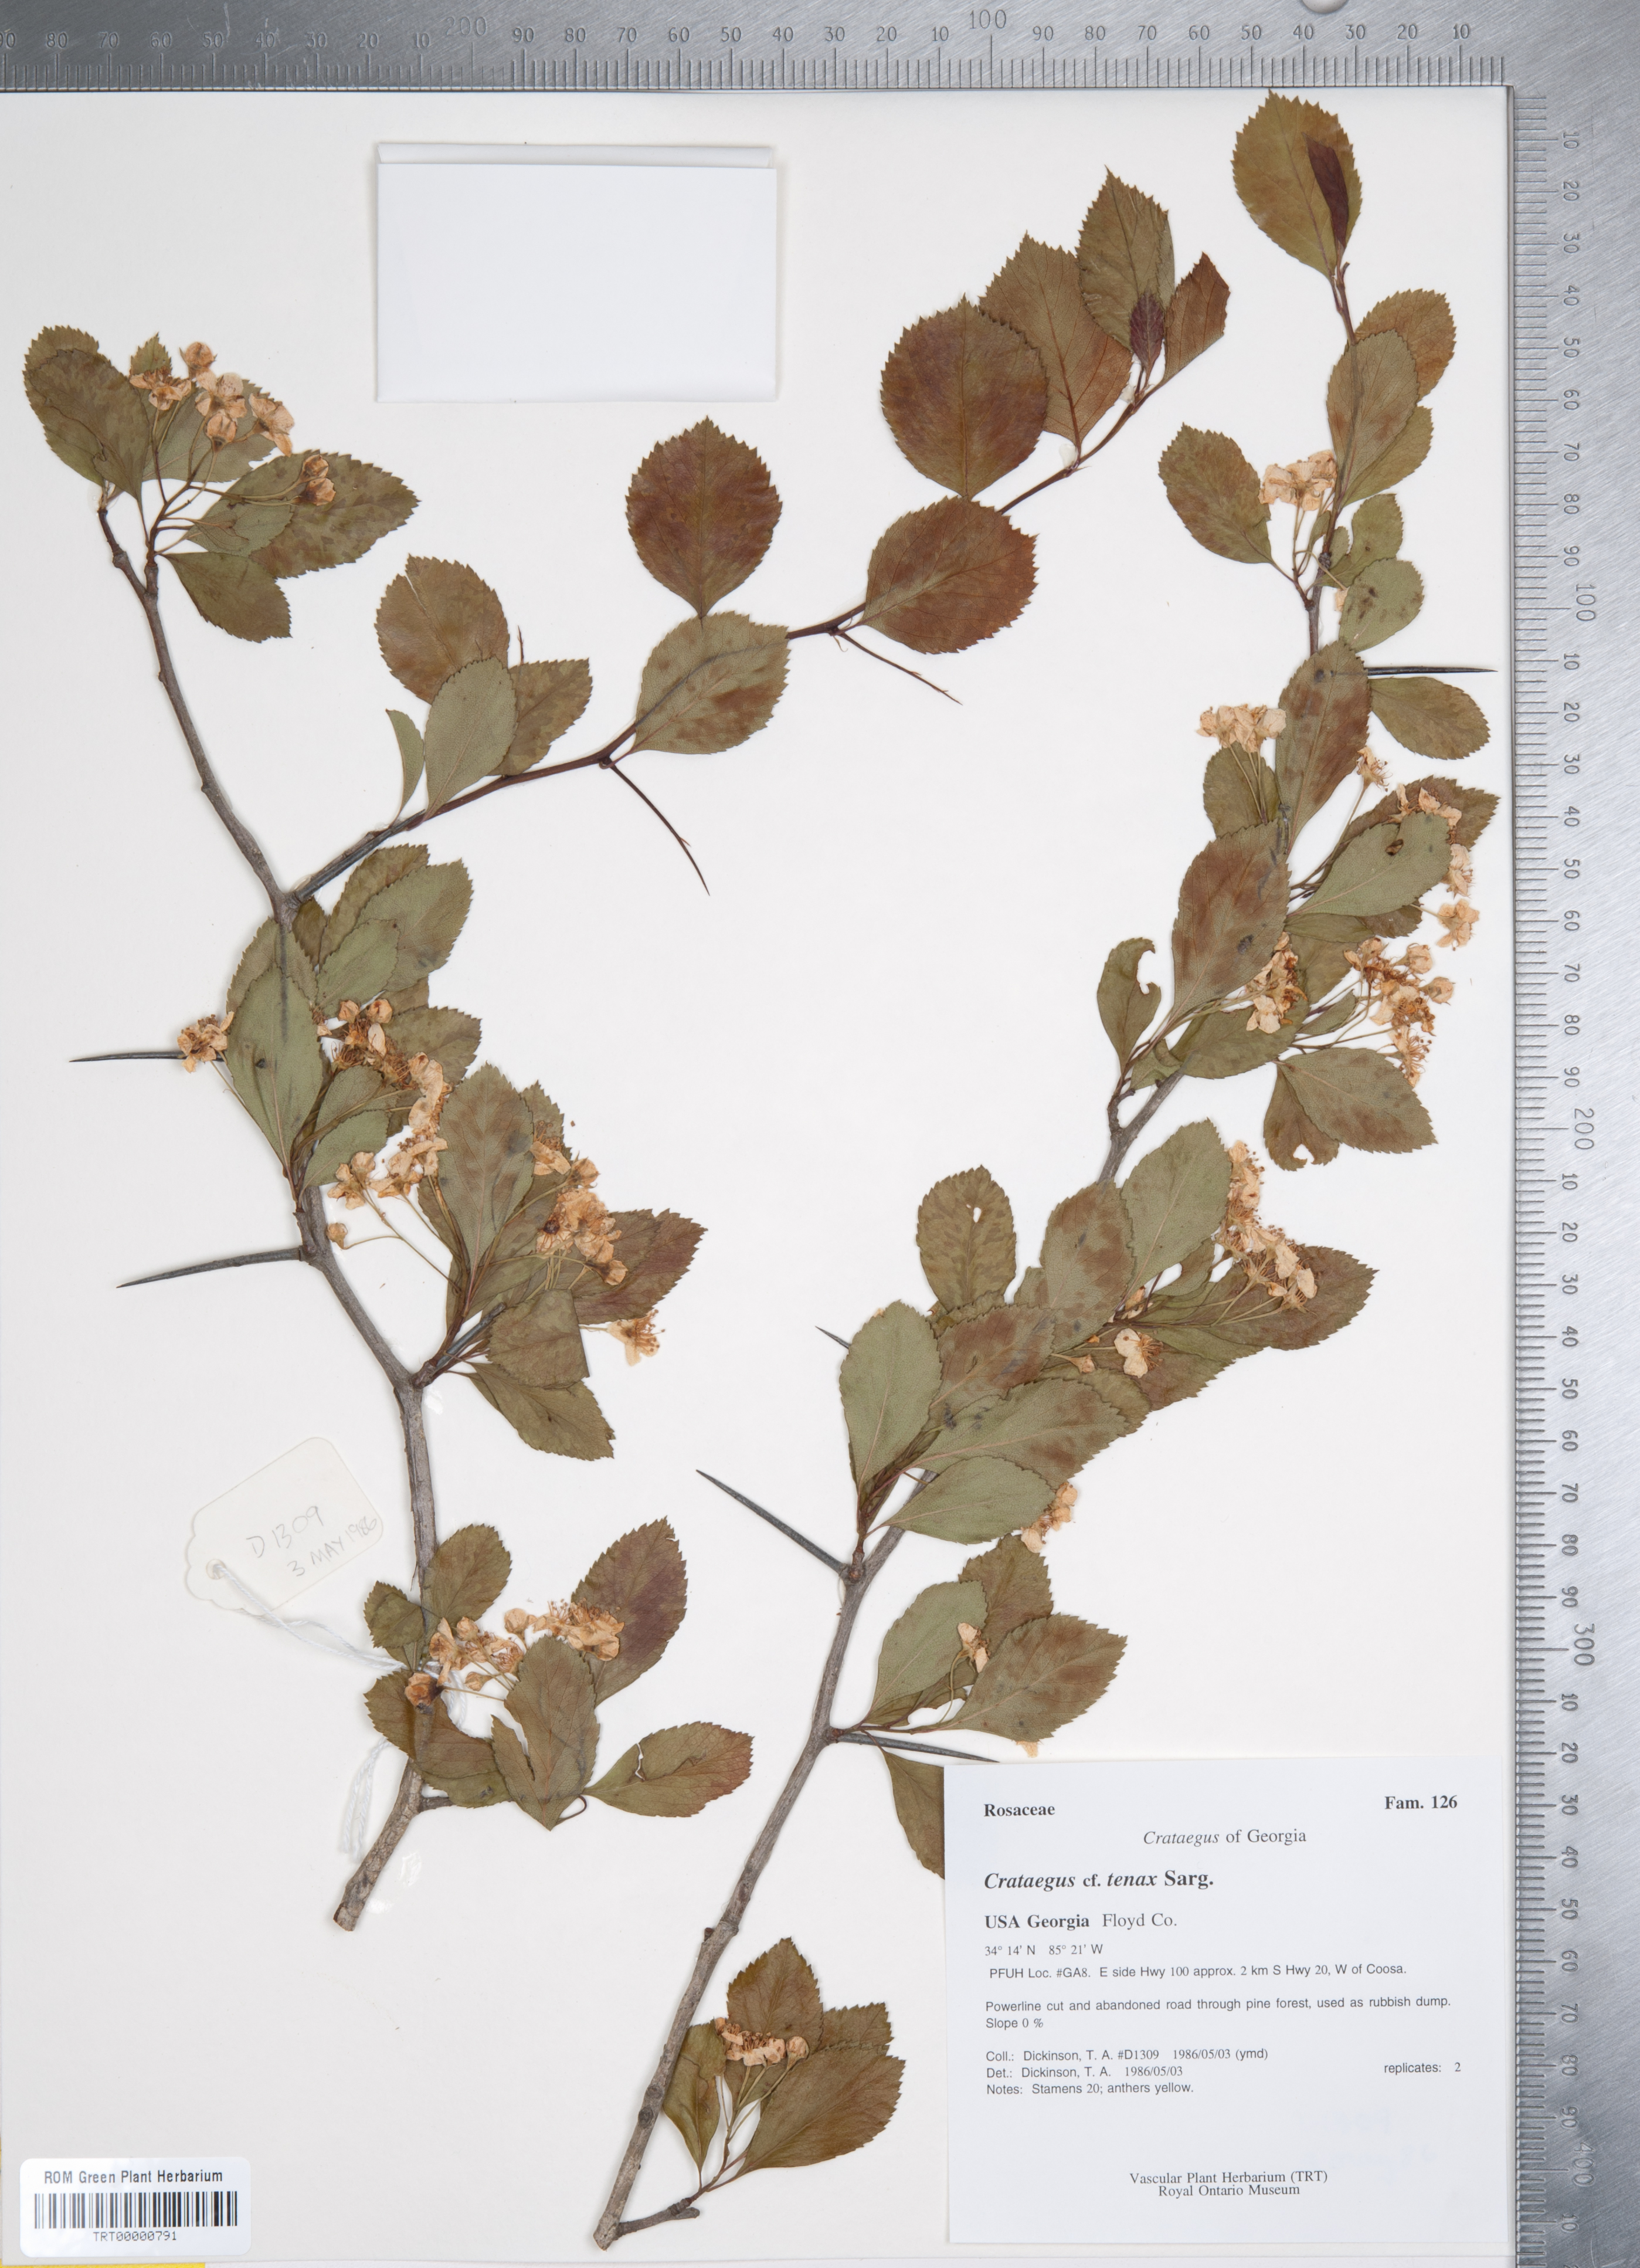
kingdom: Plantae
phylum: Tracheophyta
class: Magnoliopsida
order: Rosales
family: Rosaceae
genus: Crataegus
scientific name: Crataegus crus-galli
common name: Cockspurthorn
